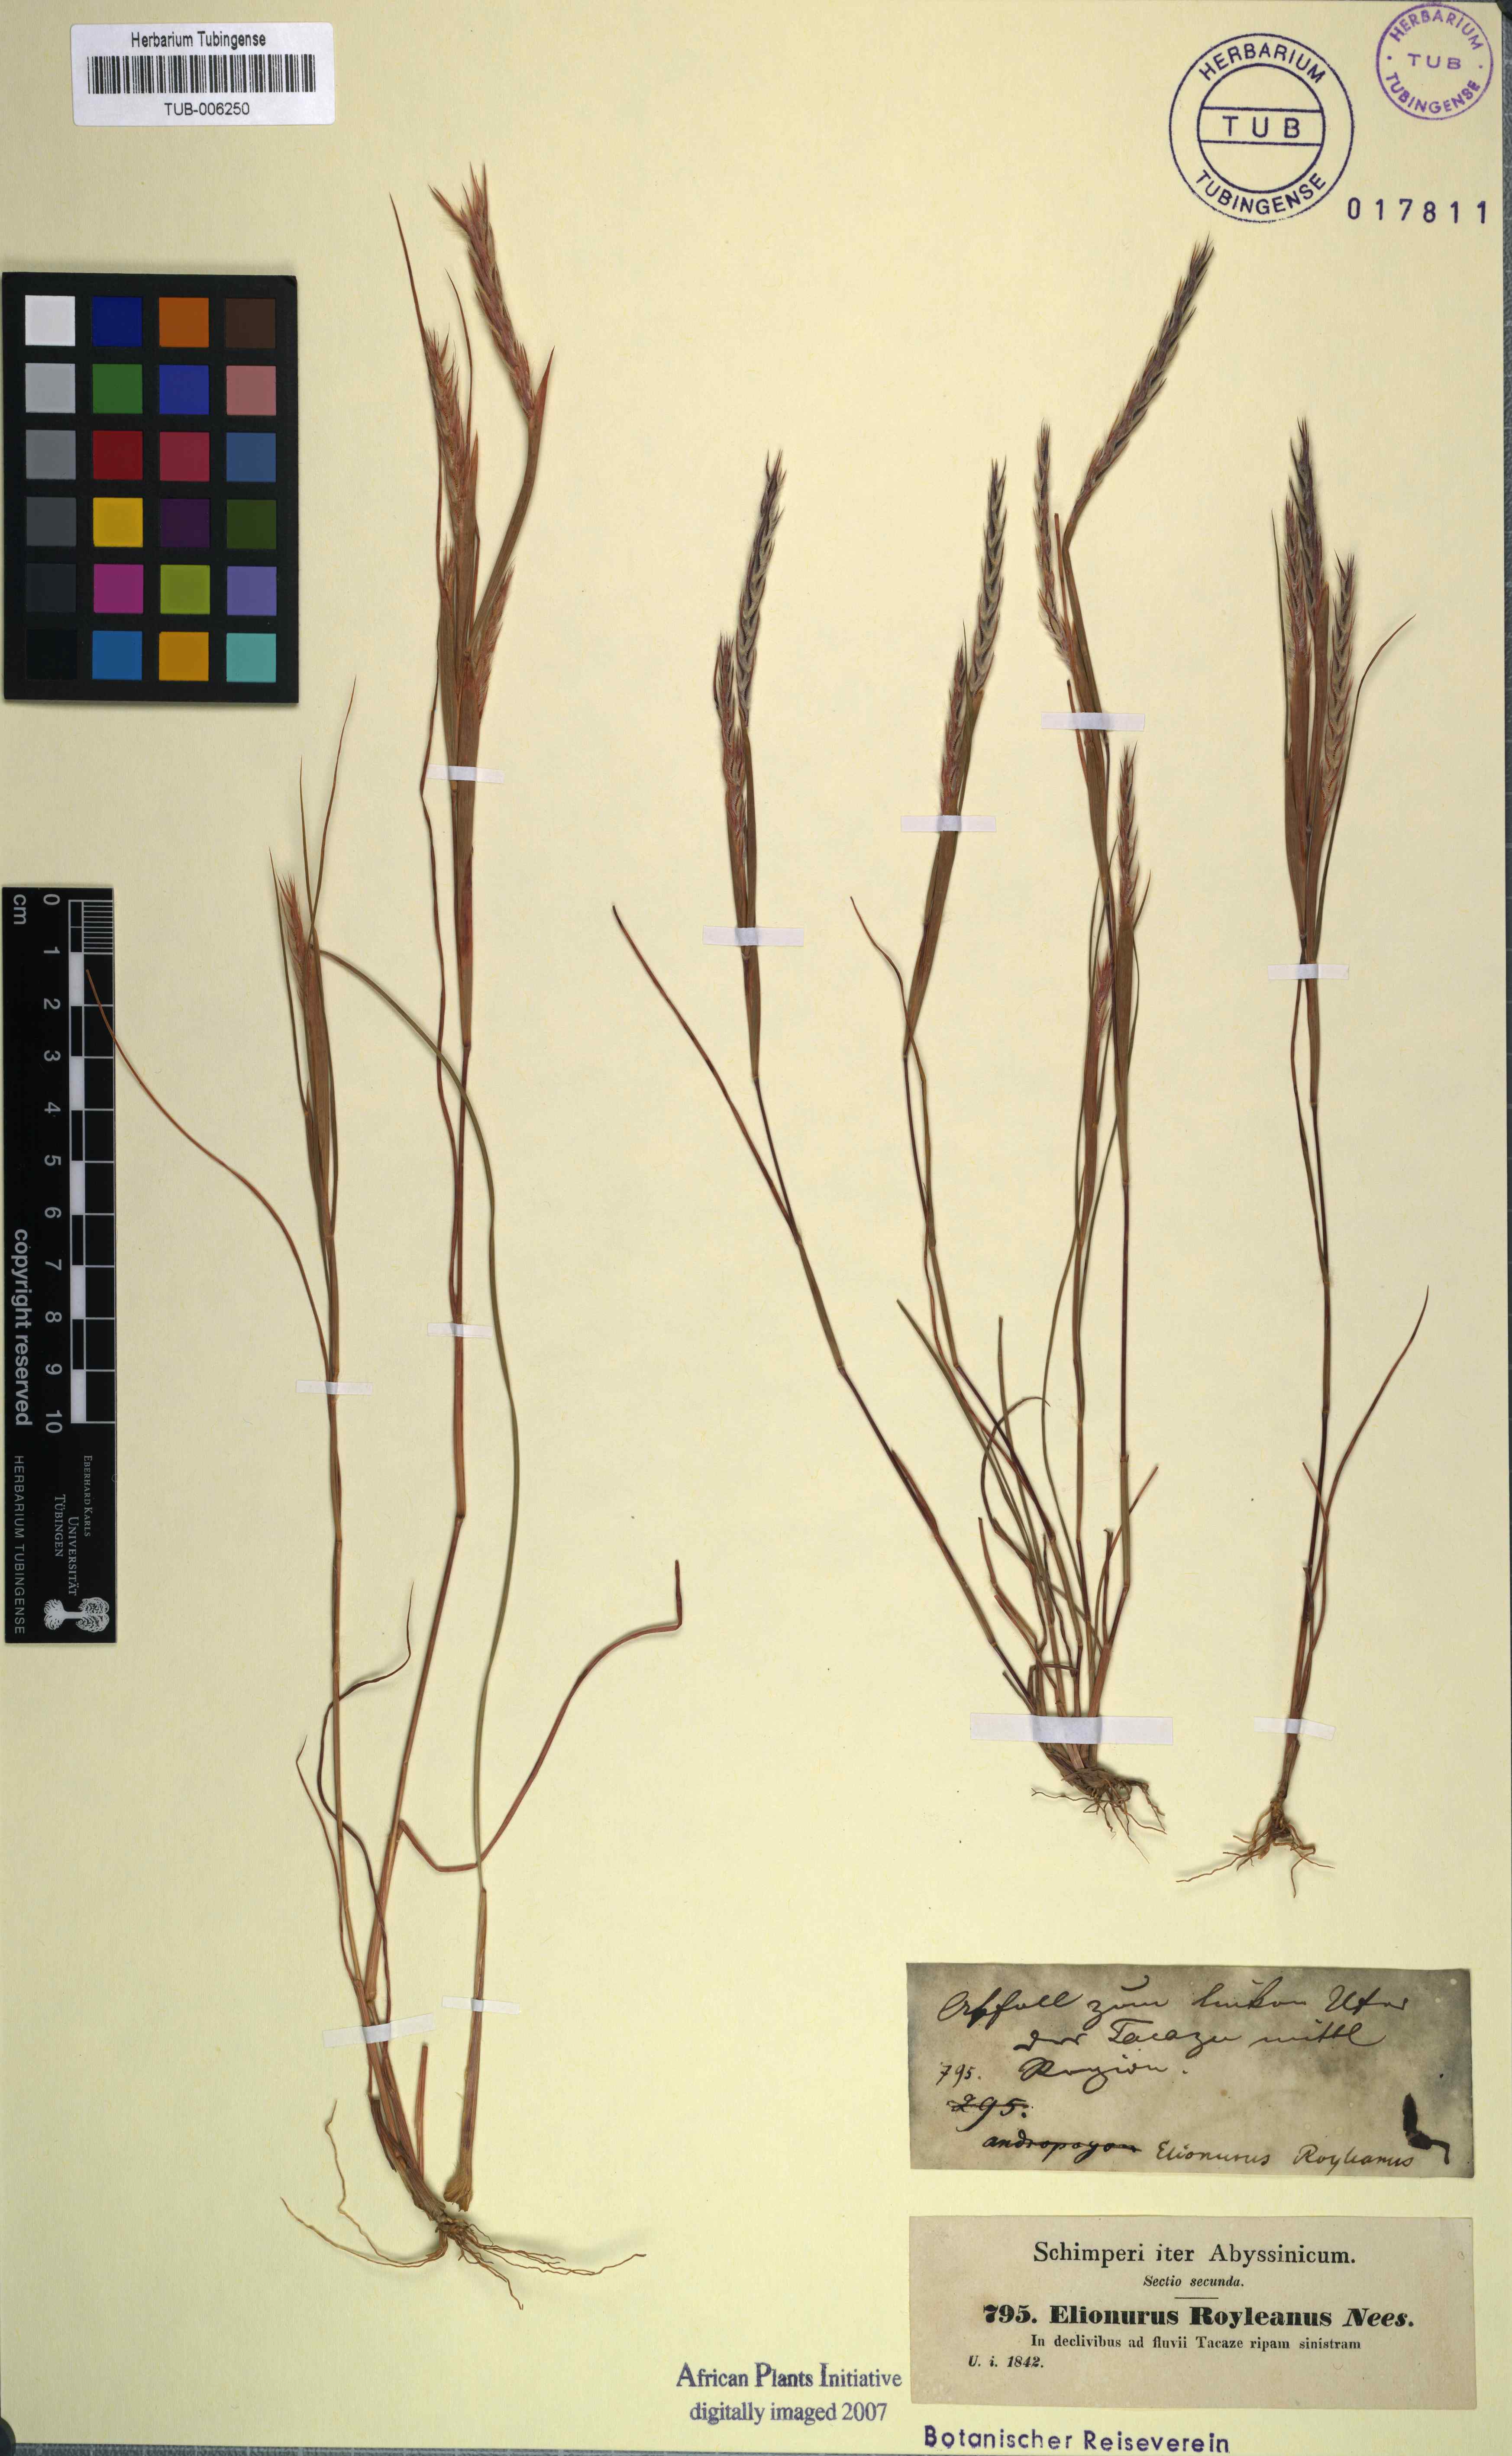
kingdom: Plantae
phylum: Tracheophyta
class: Liliopsida
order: Poales
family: Poaceae
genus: Elionurus
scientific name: Elionurus royleanus
